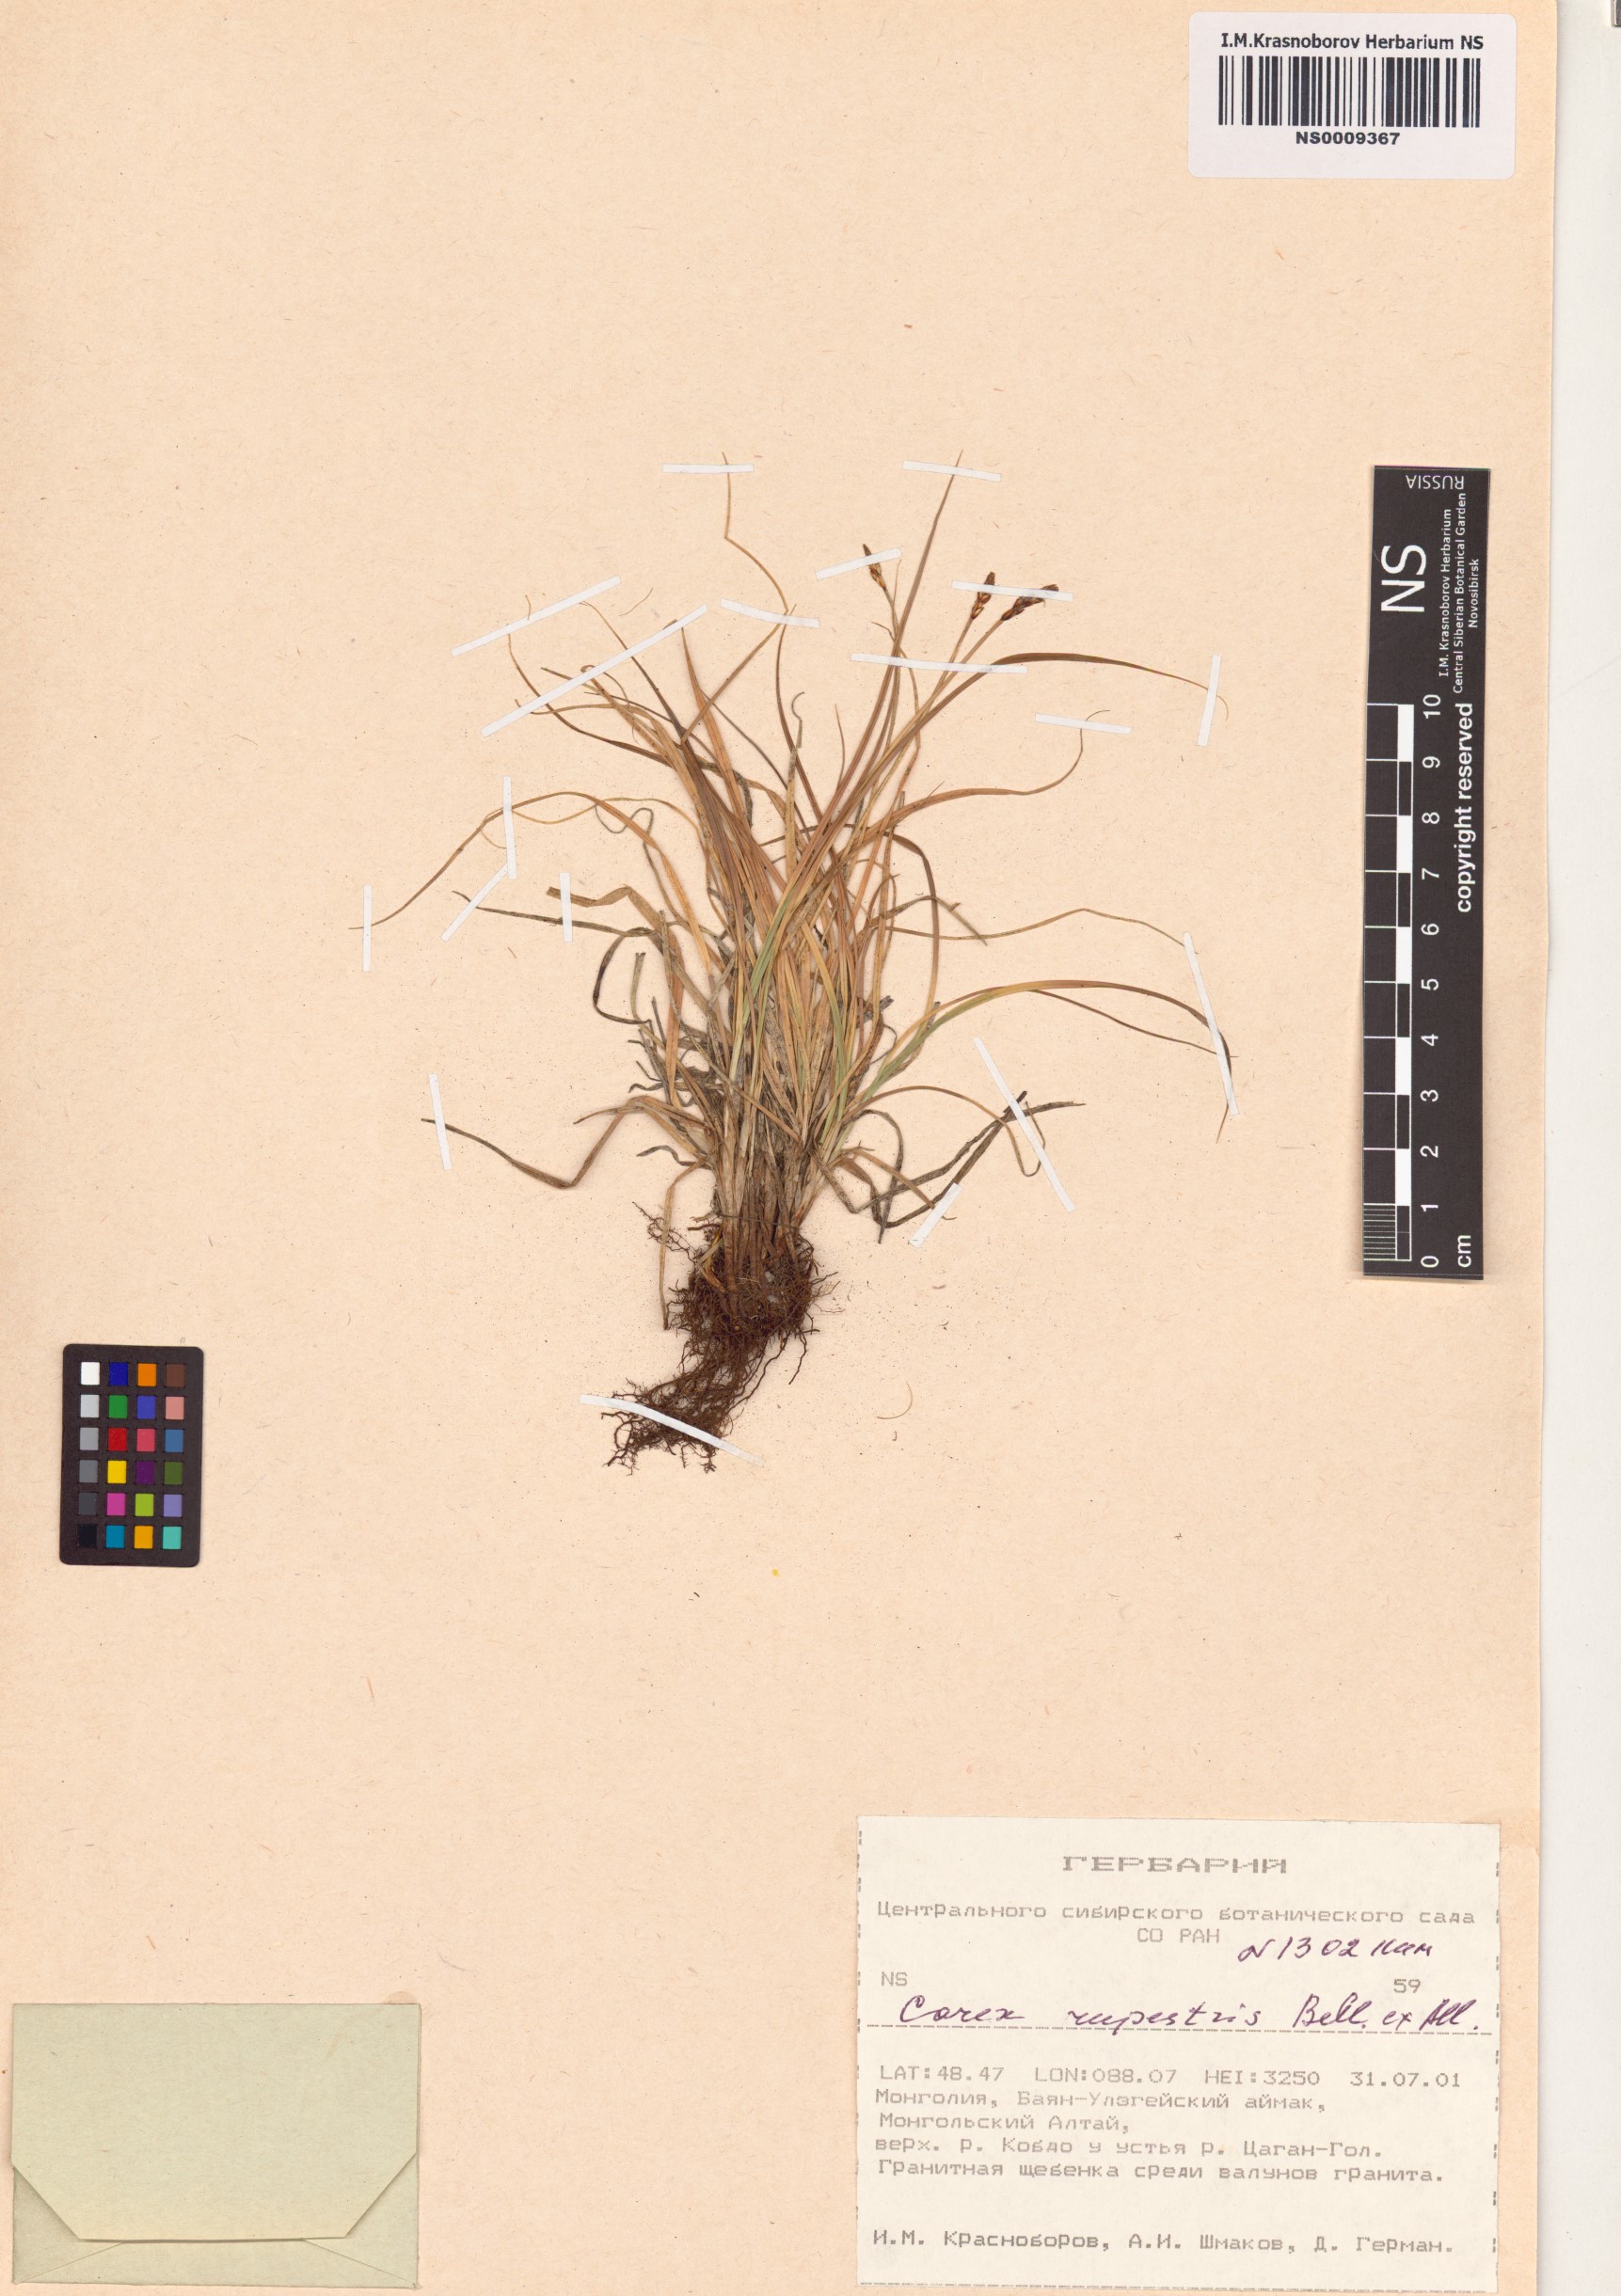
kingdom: Plantae
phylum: Tracheophyta
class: Liliopsida
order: Poales
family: Cyperaceae
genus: Carex
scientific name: Carex rupestris
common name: Rock sedge
